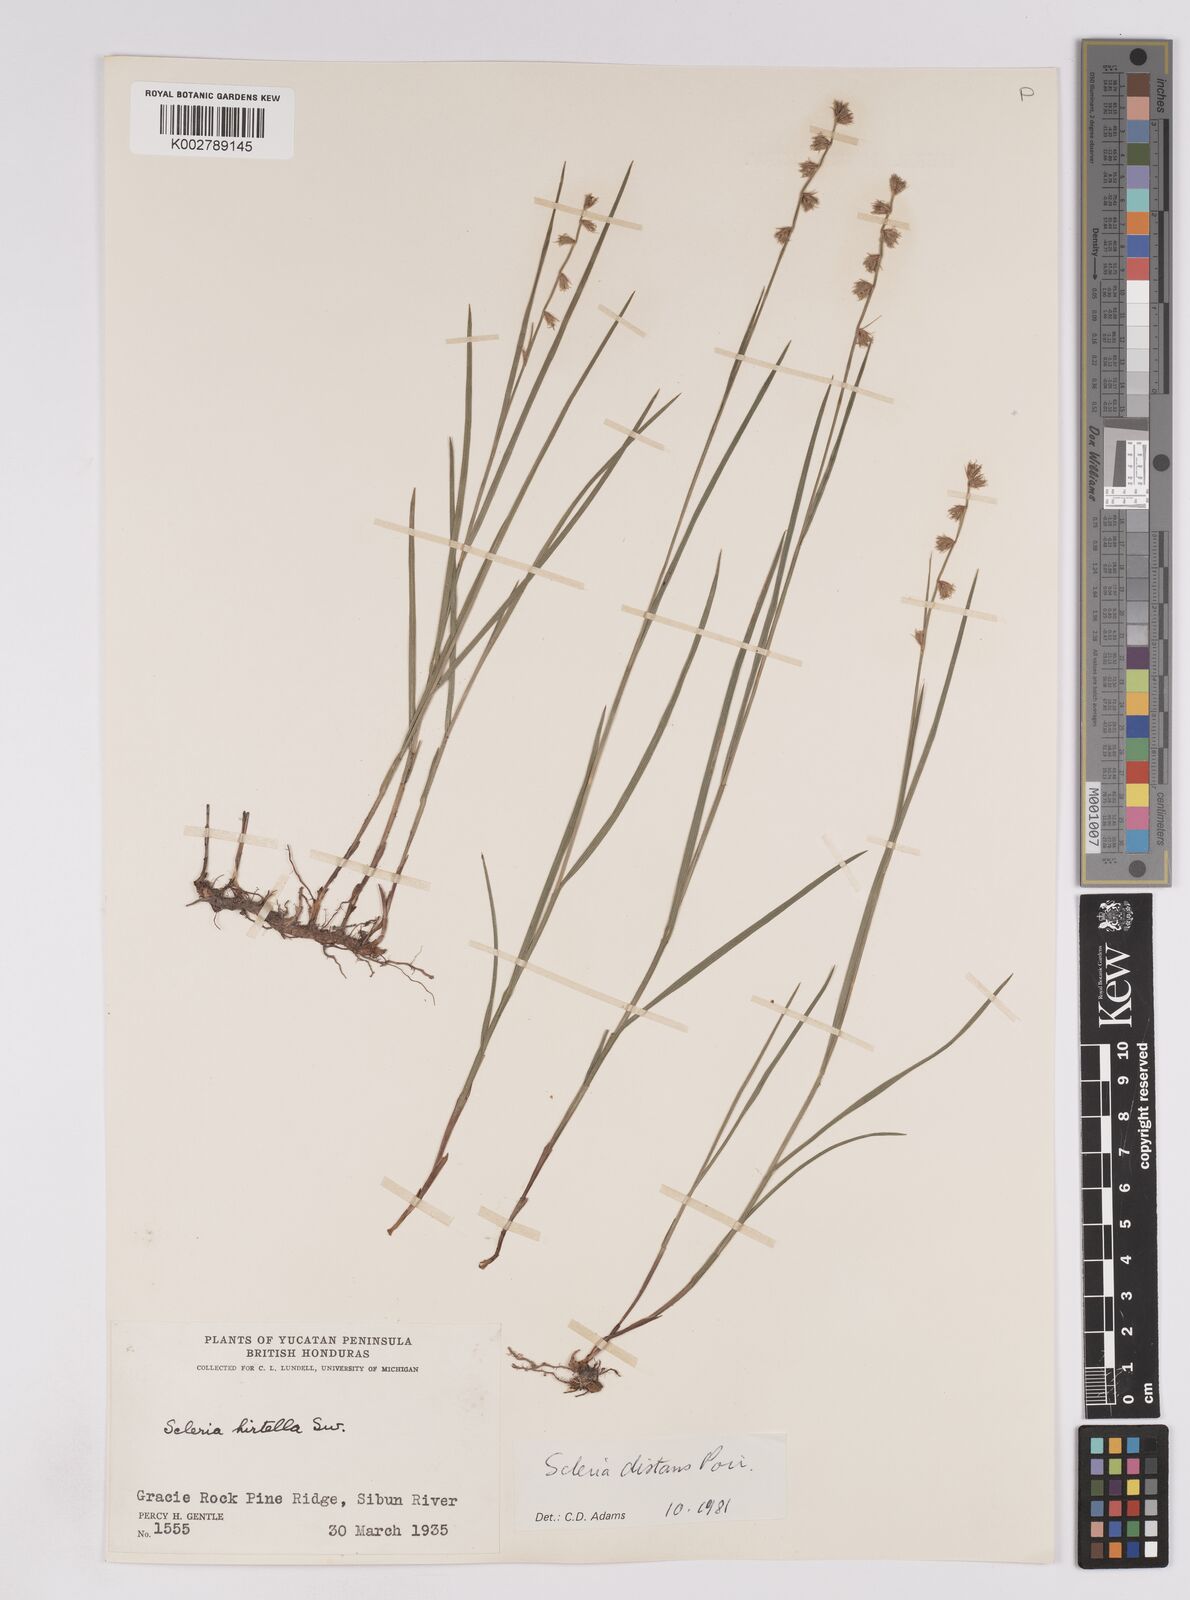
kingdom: Plantae
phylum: Tracheophyta
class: Liliopsida
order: Poales
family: Cyperaceae
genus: Scleria
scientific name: Scleria distans
